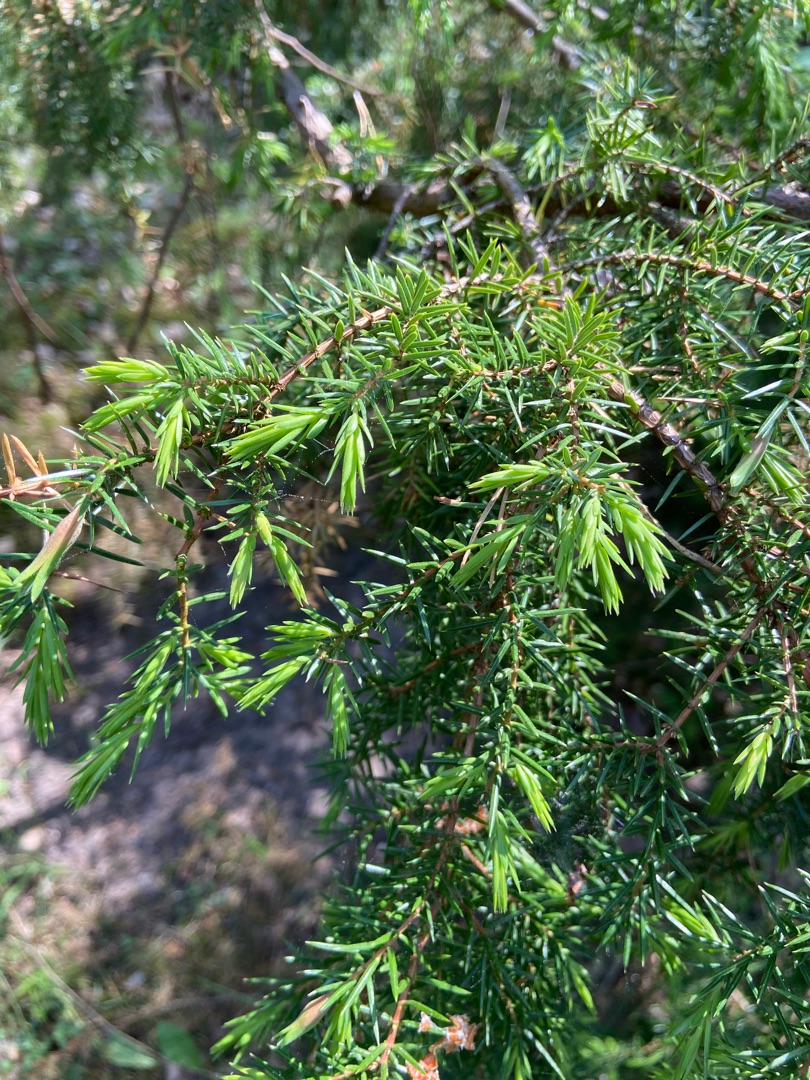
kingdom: Plantae
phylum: Tracheophyta
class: Pinopsida
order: Pinales
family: Cupressaceae
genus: Juniperus
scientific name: Juniperus communis
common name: Almindelig ene
